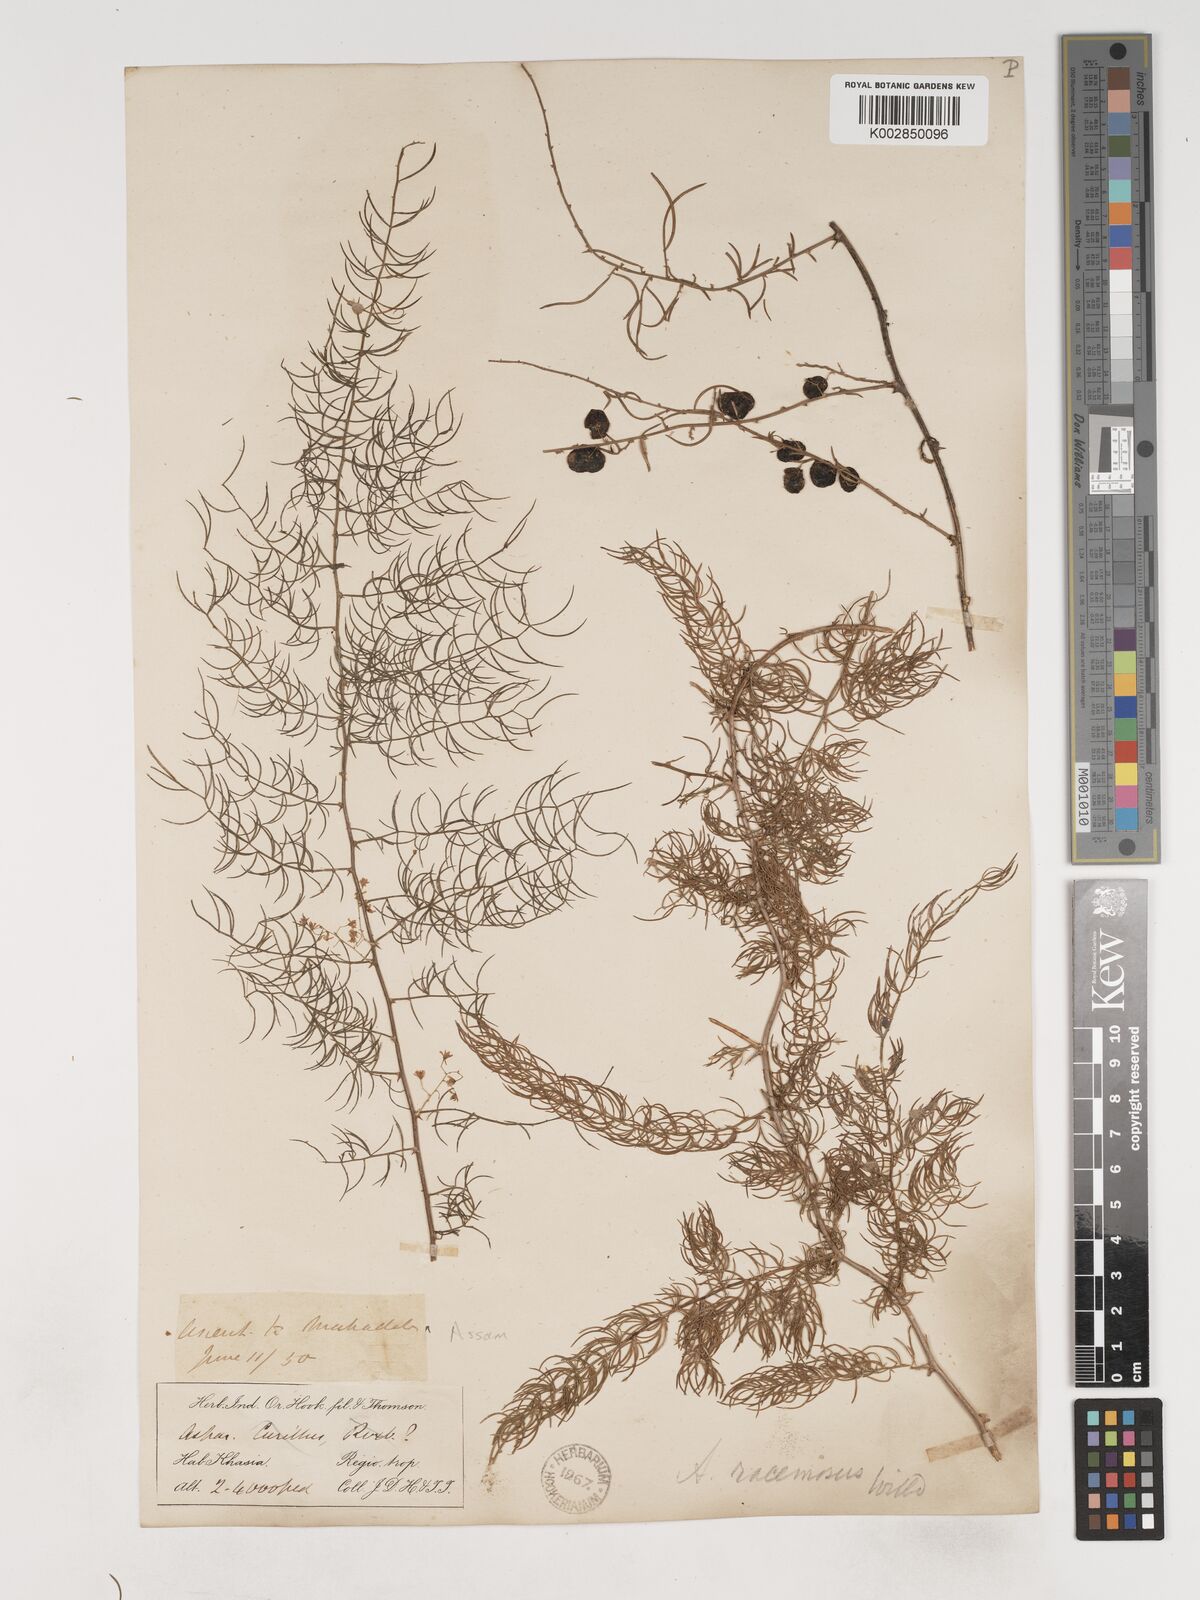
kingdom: Plantae
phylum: Tracheophyta
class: Liliopsida
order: Asparagales
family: Asparagaceae
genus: Asparagus
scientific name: Asparagus racemosus
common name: Asparagus-fern
